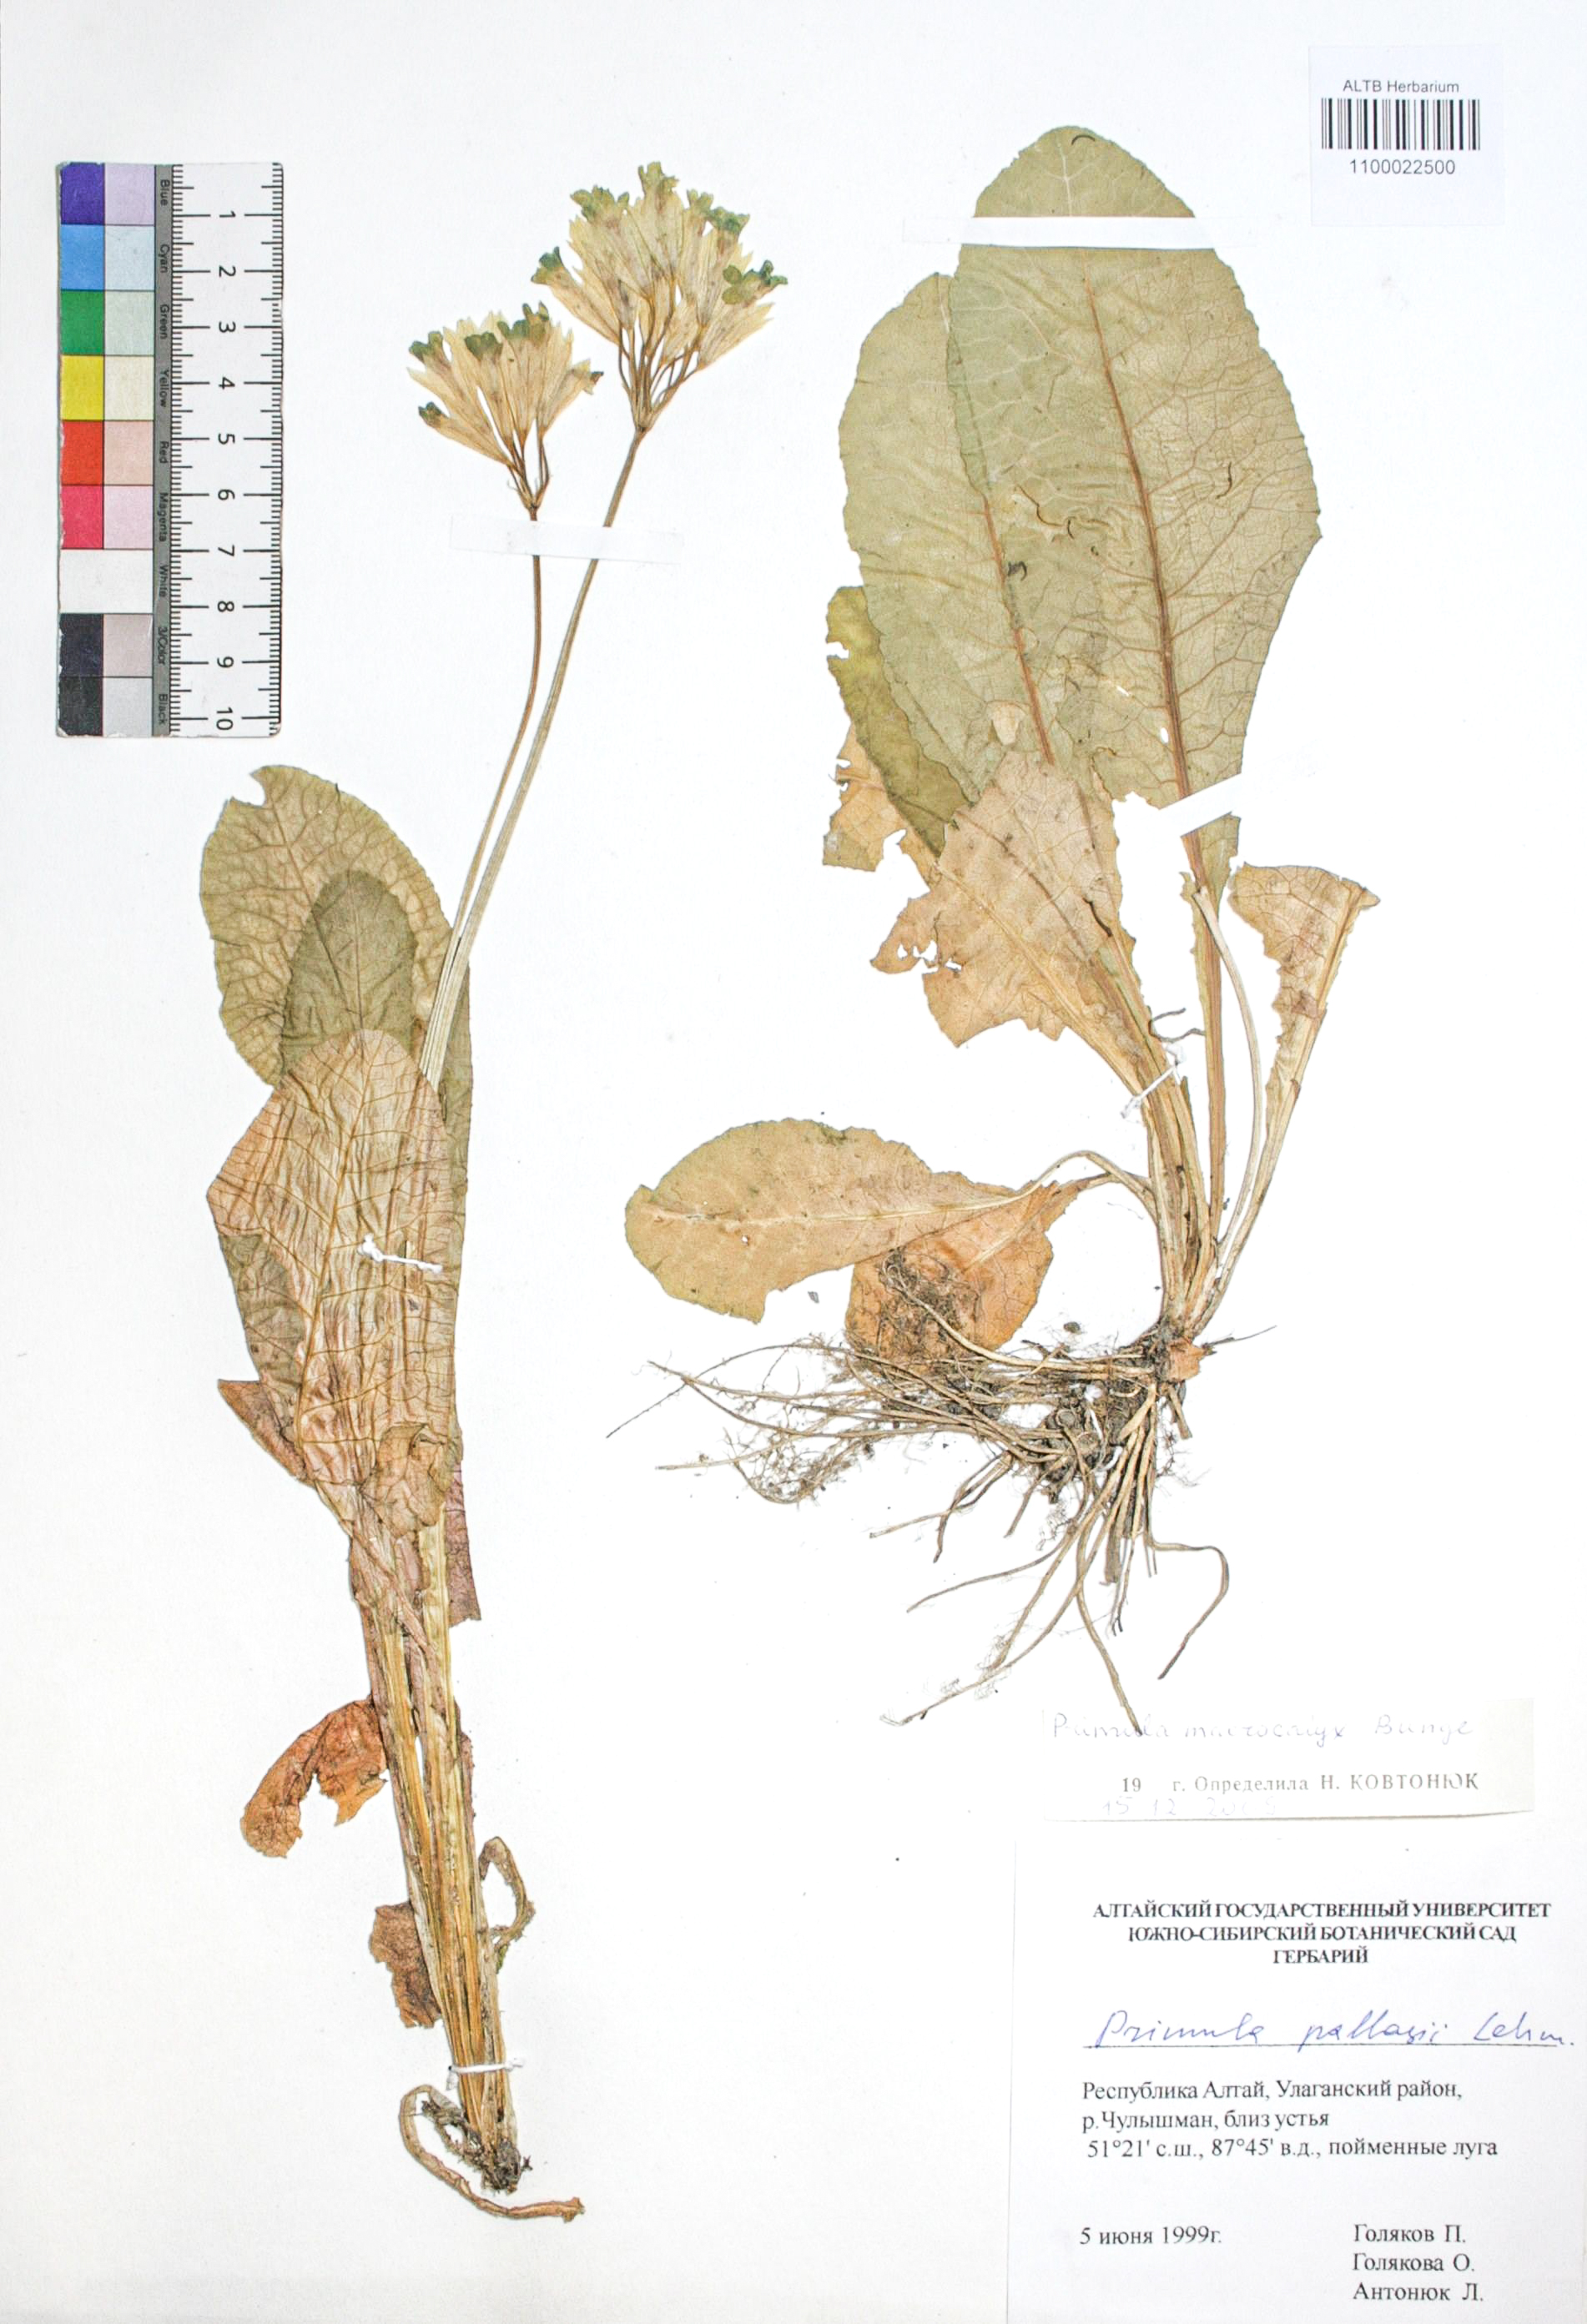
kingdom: Plantae
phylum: Tracheophyta
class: Magnoliopsida
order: Ericales
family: Primulaceae
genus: Primula
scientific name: Primula veris
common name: Cowslip
